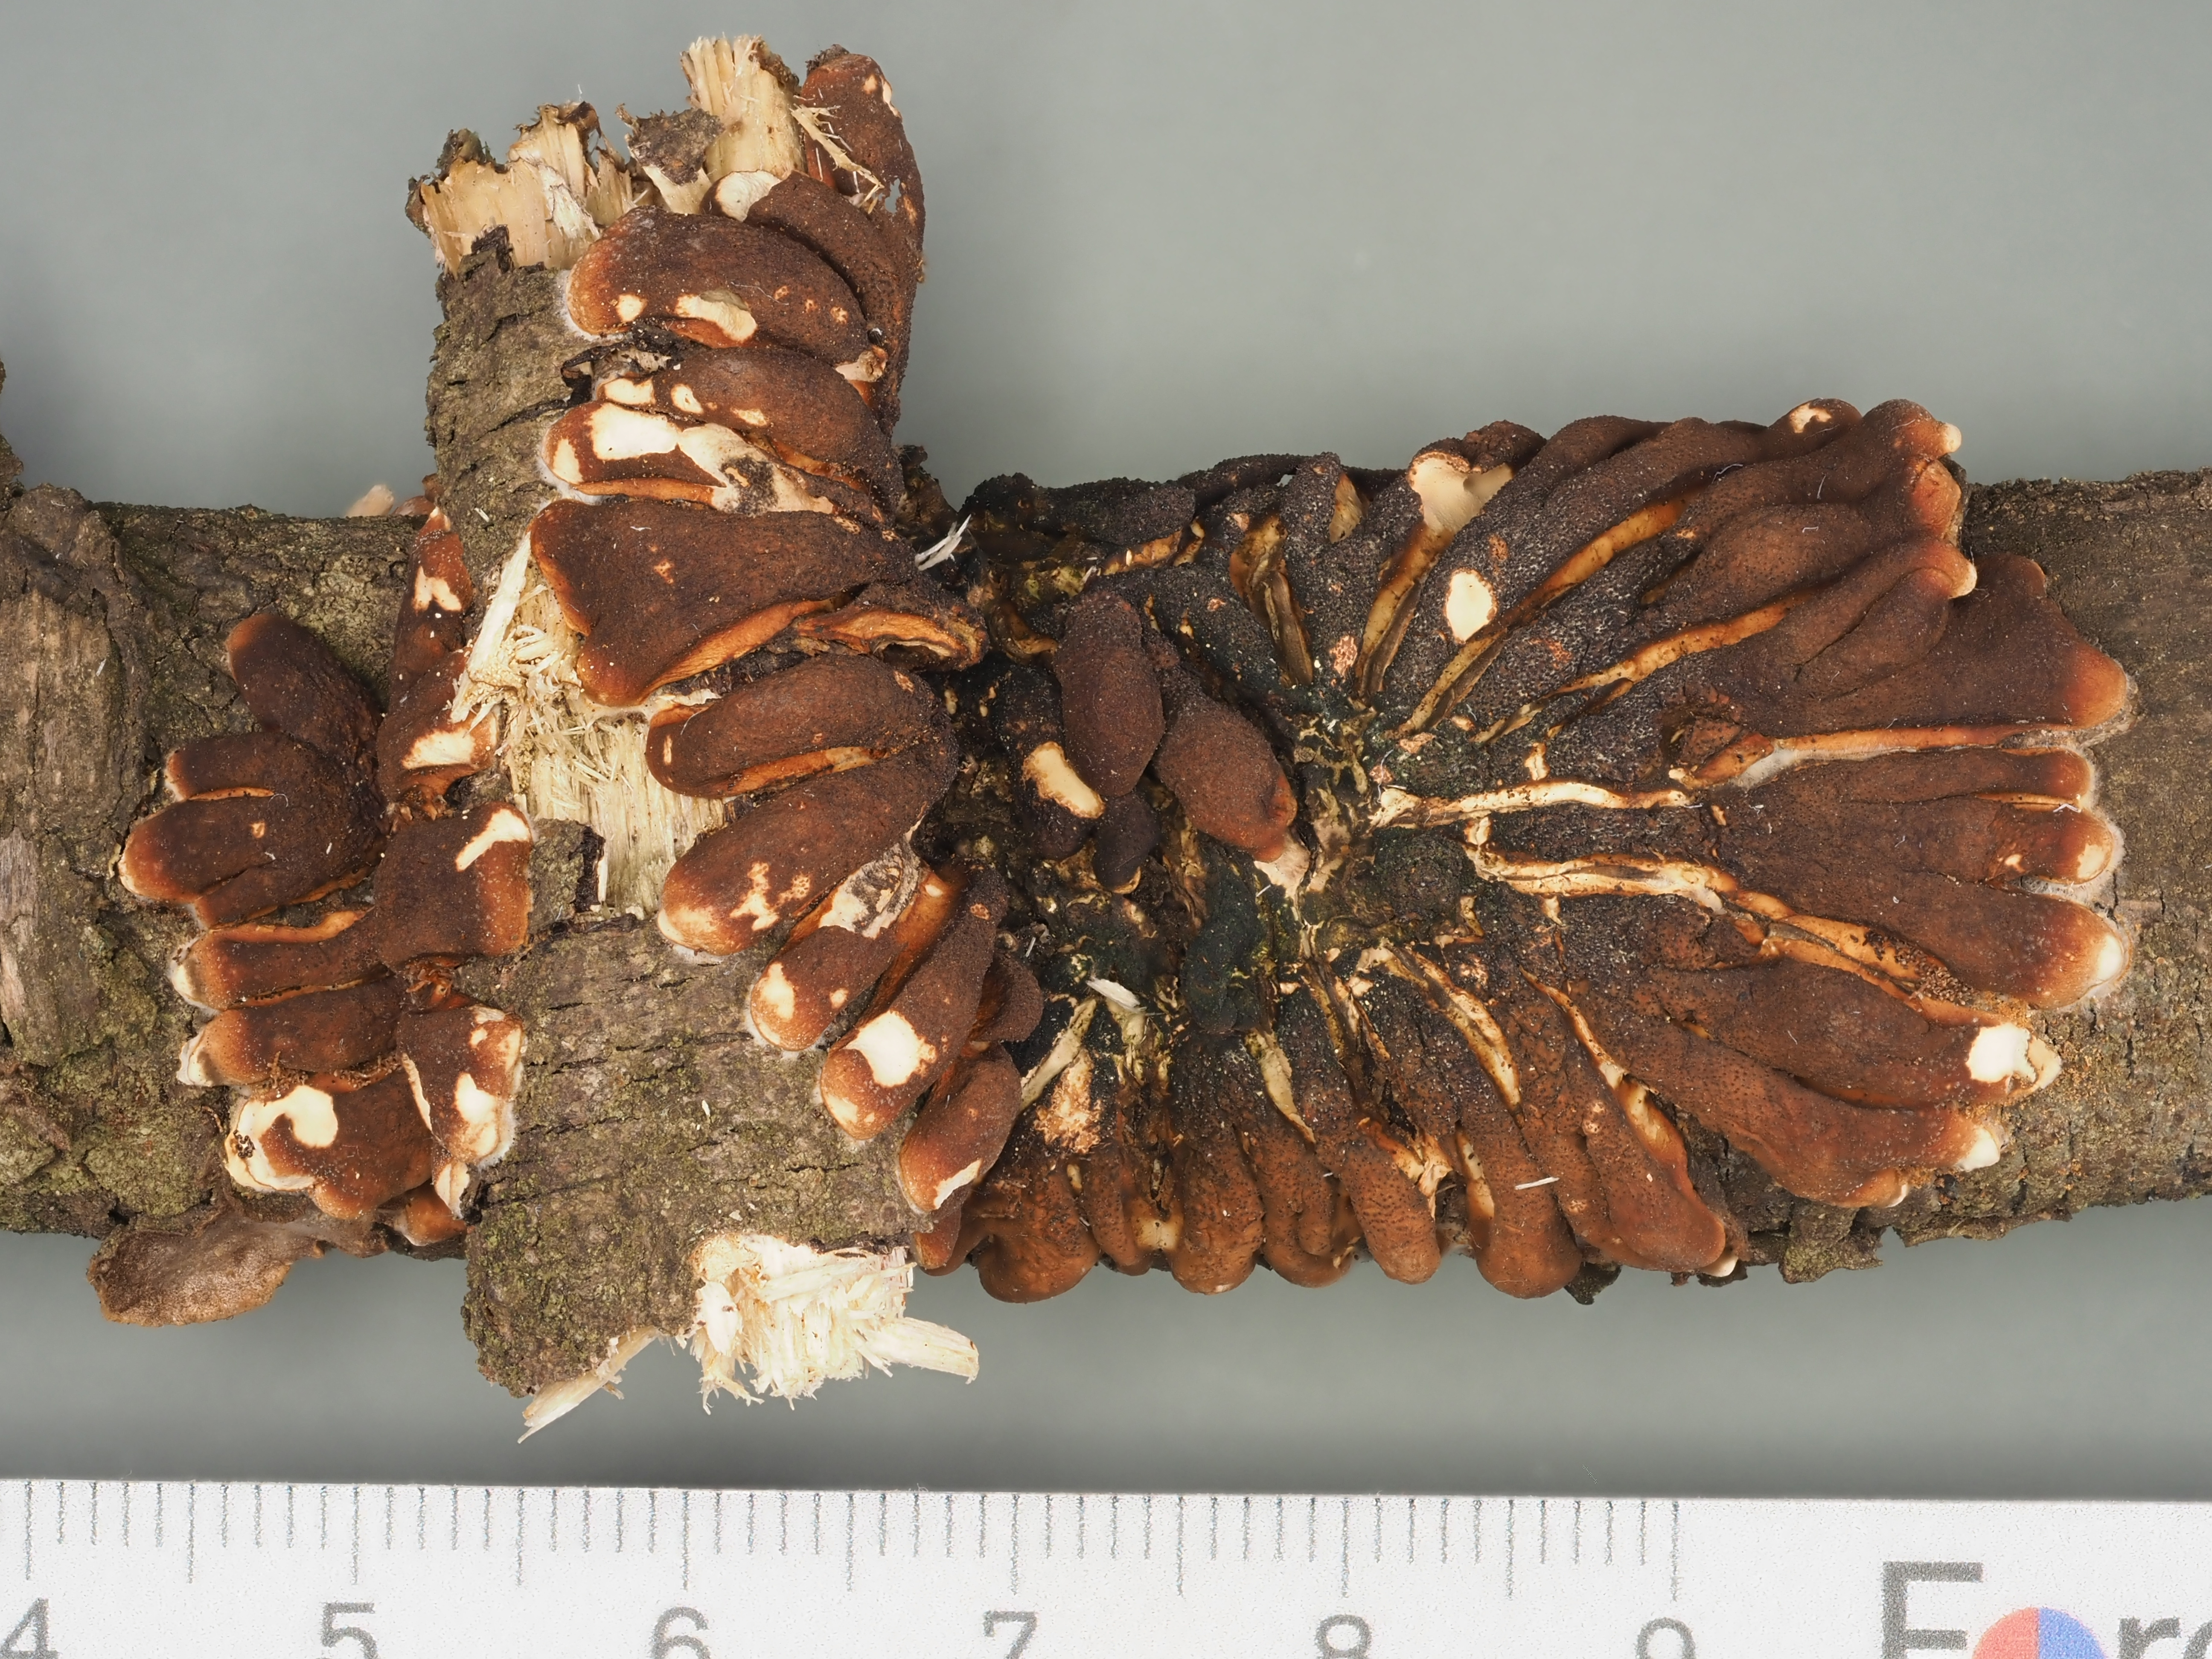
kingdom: Fungi
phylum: Ascomycota
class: Sordariomycetes
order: Hypocreales
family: Hypocreaceae
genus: Hypocreopsis
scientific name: Hypocreopsis lichenoides
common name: Willow gloves
